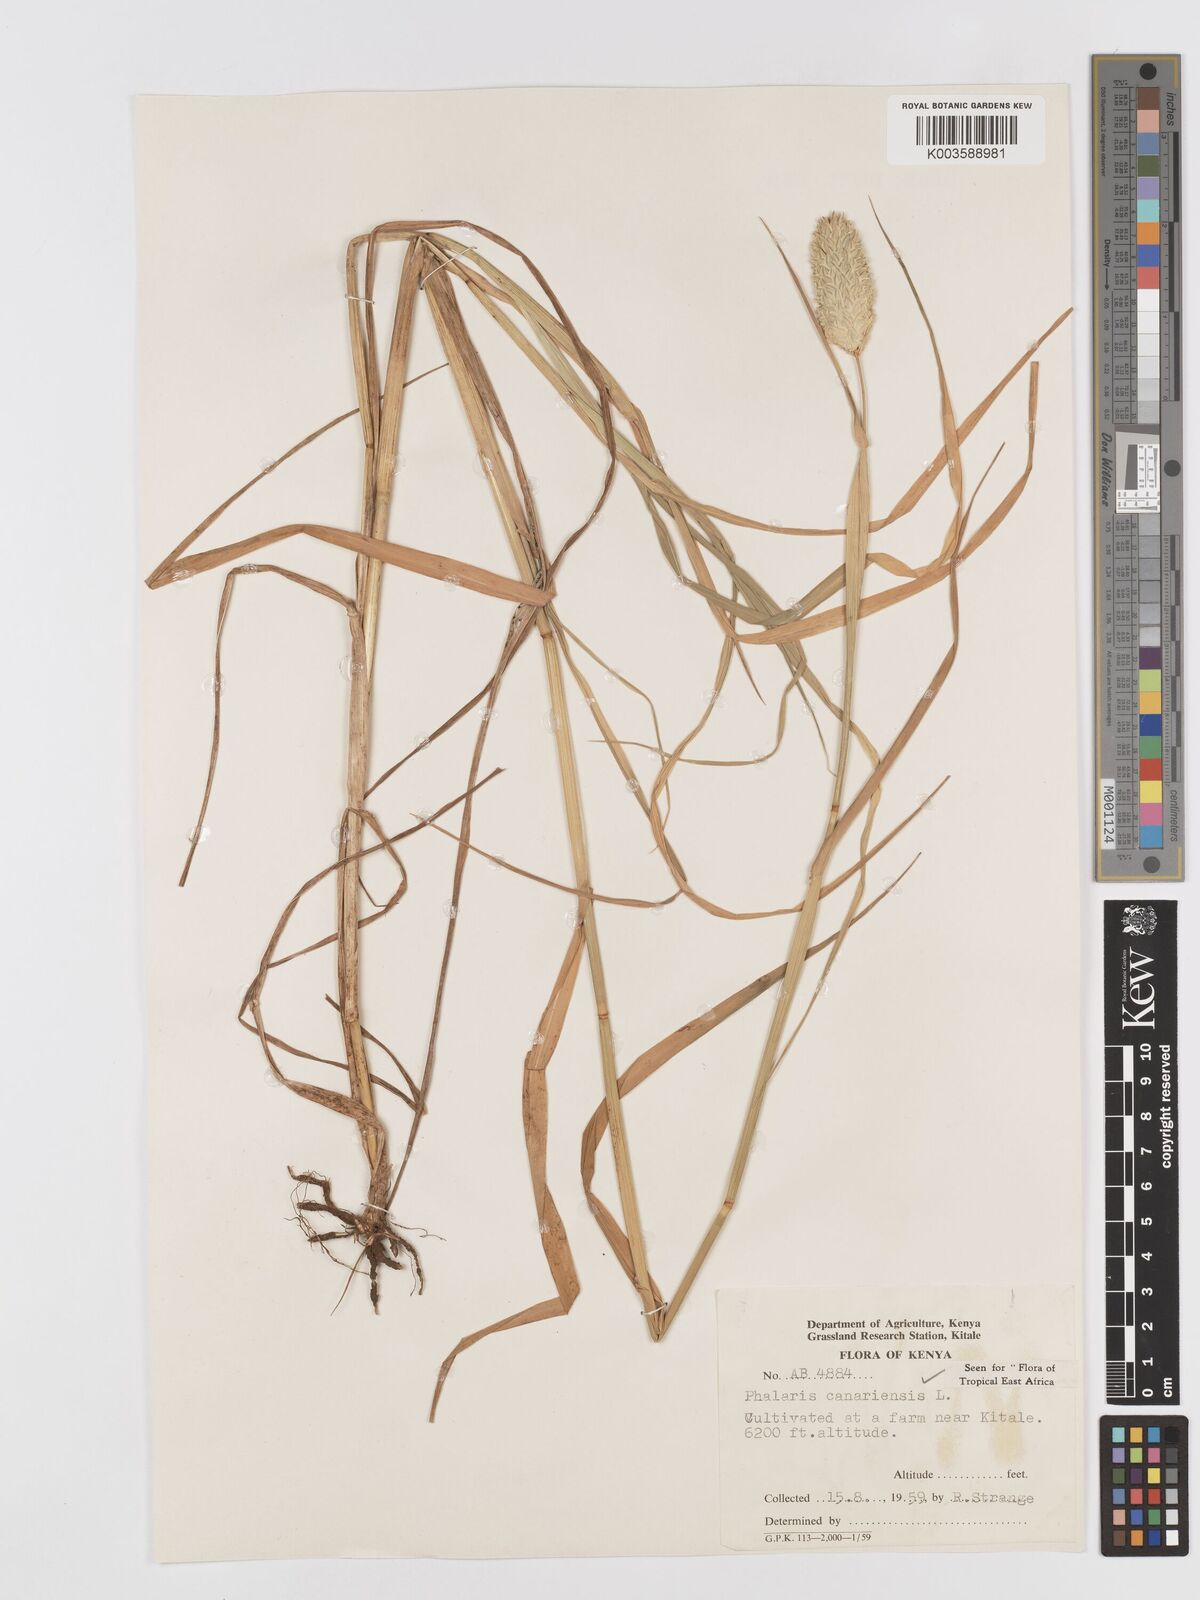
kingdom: Plantae
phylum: Tracheophyta
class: Liliopsida
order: Poales
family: Poaceae
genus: Phalaris
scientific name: Phalaris canariensis
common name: Annual canarygrass
